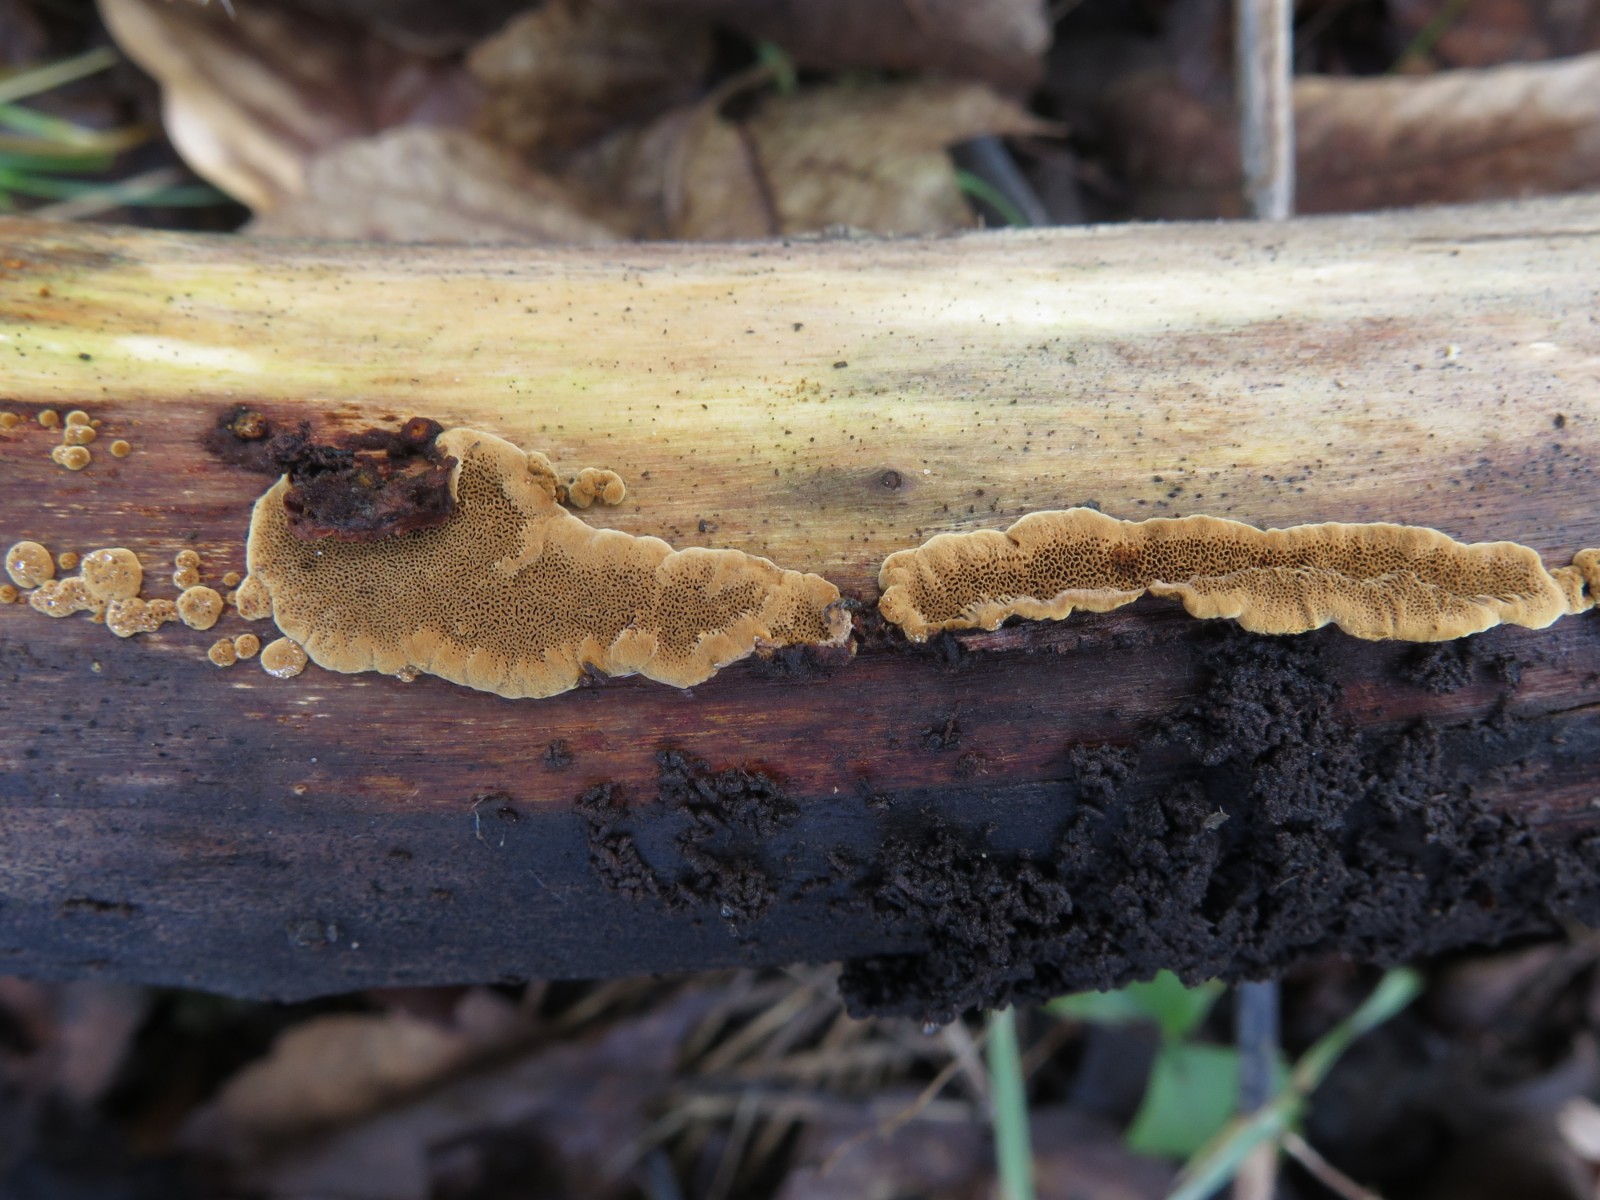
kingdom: Fungi
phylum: Basidiomycota
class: Agaricomycetes
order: Hymenochaetales
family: Hymenochaetaceae
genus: Fuscoporia
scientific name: Fuscoporia ferrea
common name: skorpe-ildporesvamp
